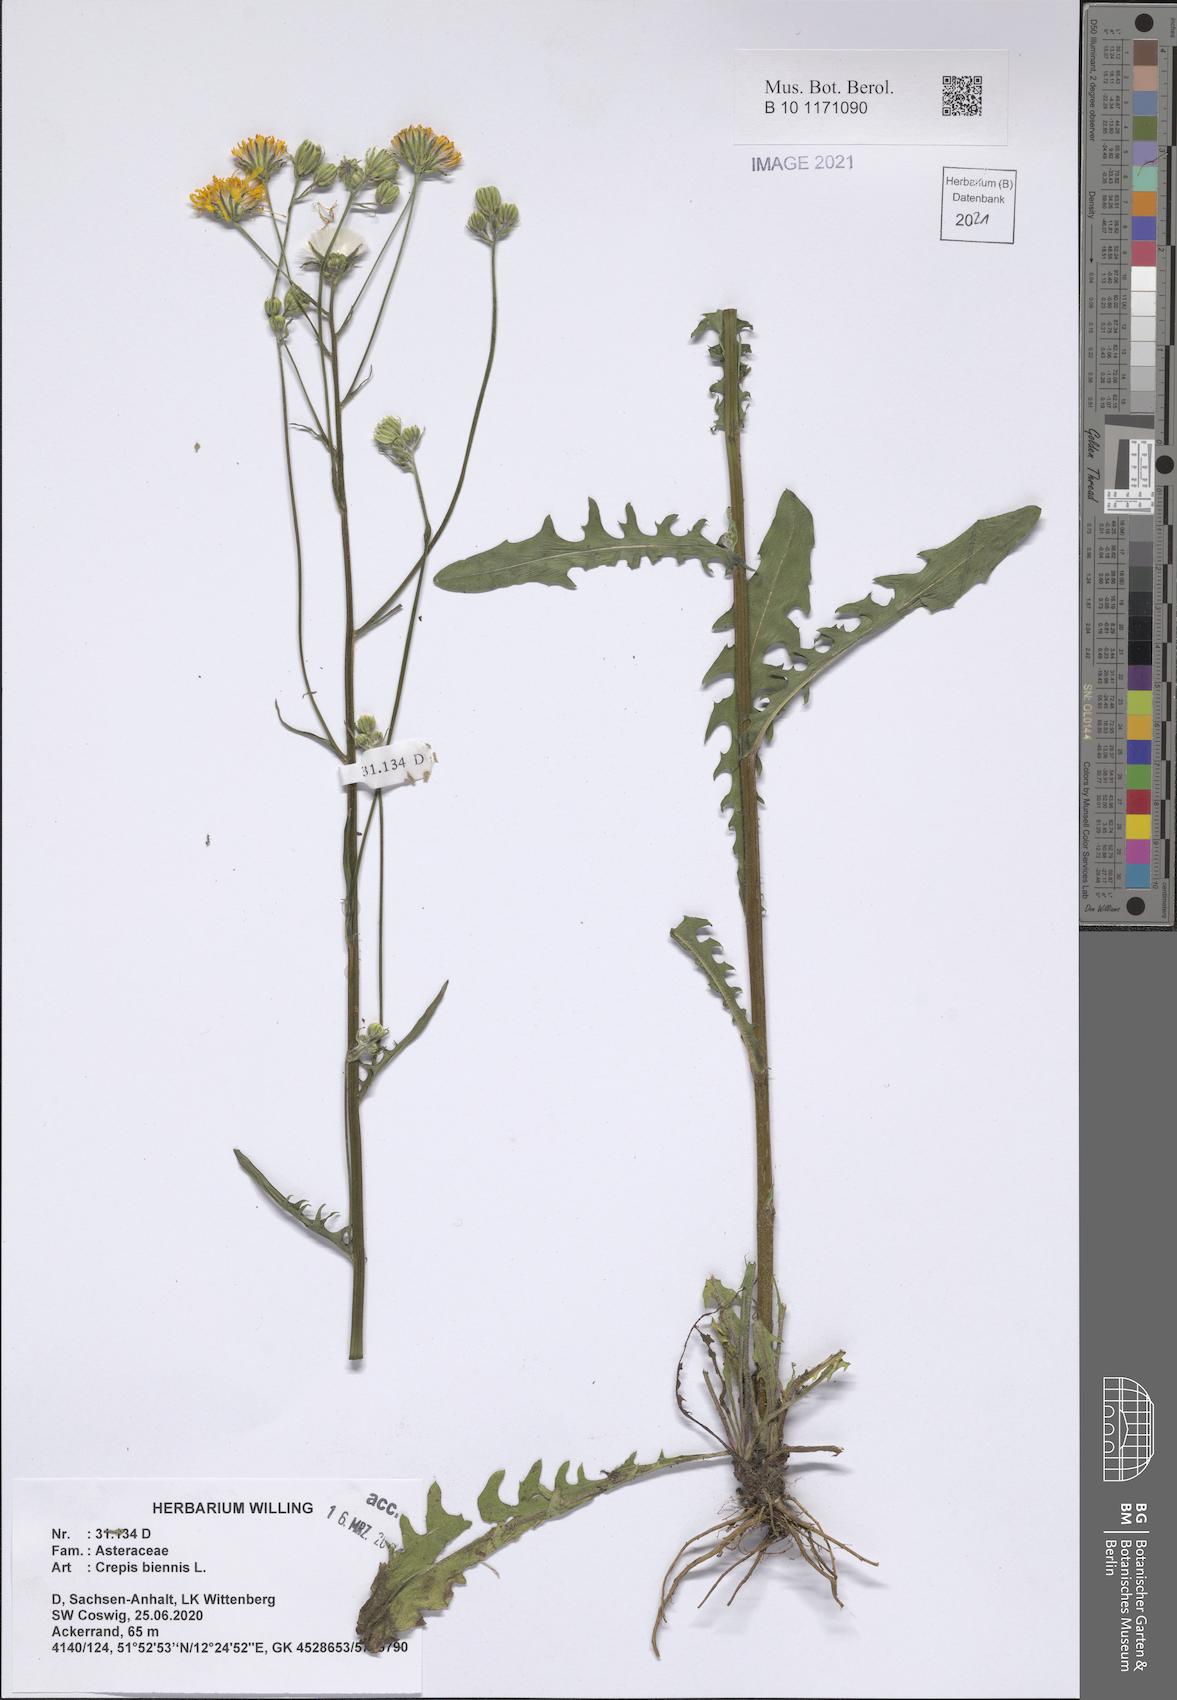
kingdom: Plantae
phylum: Tracheophyta
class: Magnoliopsida
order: Asterales
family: Asteraceae
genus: Crepis
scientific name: Crepis biennis
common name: Rough hawk's-beard
